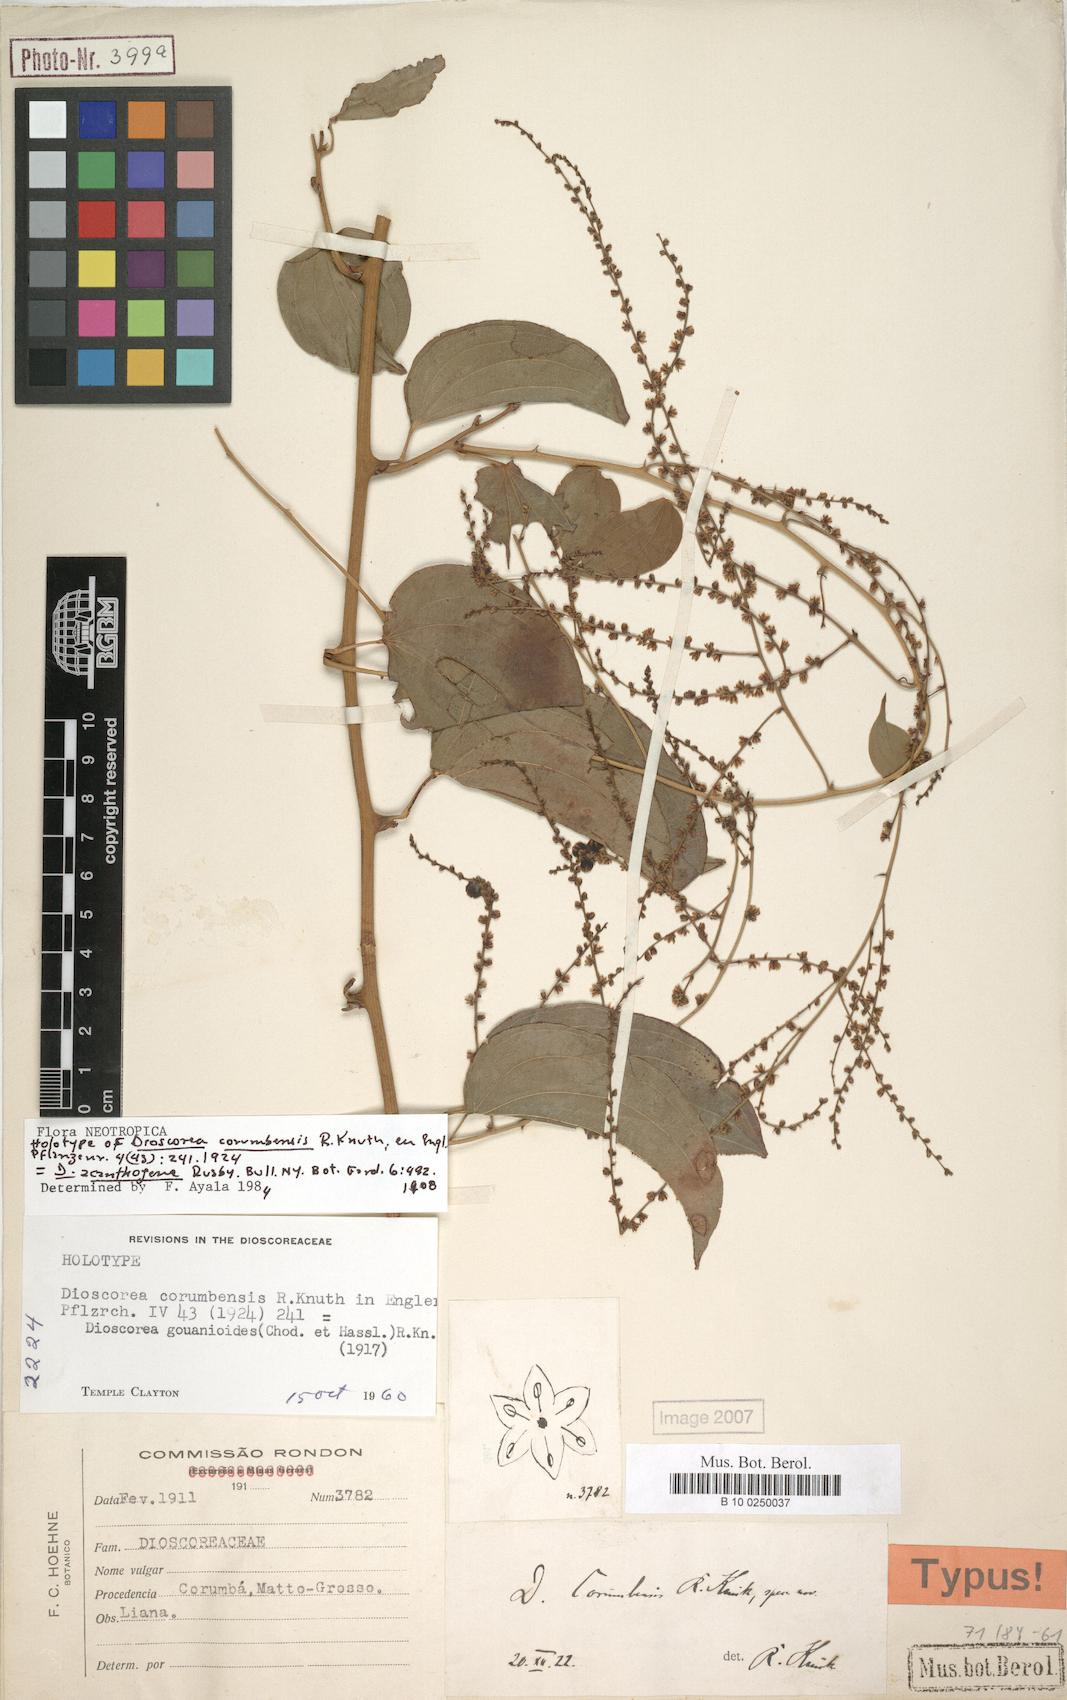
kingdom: Plantae
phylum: Tracheophyta
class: Liliopsida
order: Dioscoreales
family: Dioscoreaceae
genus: Dioscorea
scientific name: Dioscorea acanthogene
